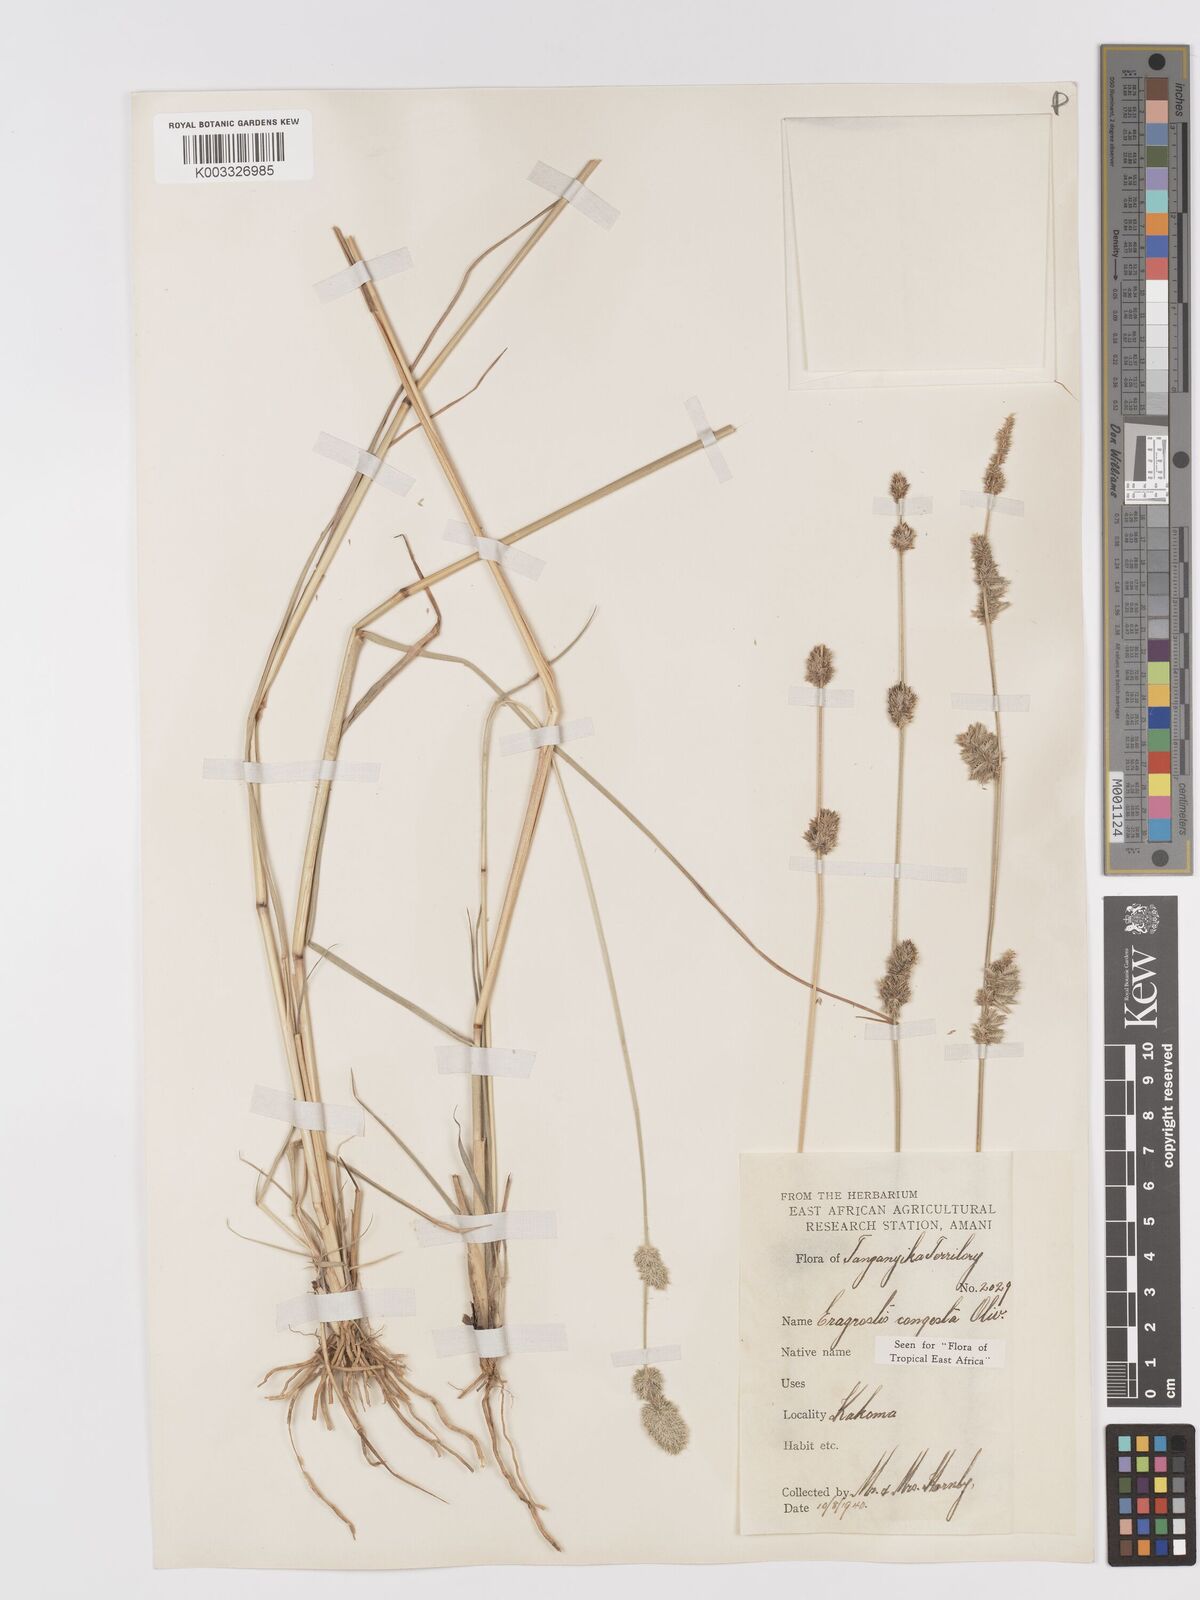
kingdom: Plantae
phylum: Tracheophyta
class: Liliopsida
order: Poales
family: Poaceae
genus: Eragrostis
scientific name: Eragrostis congesta
